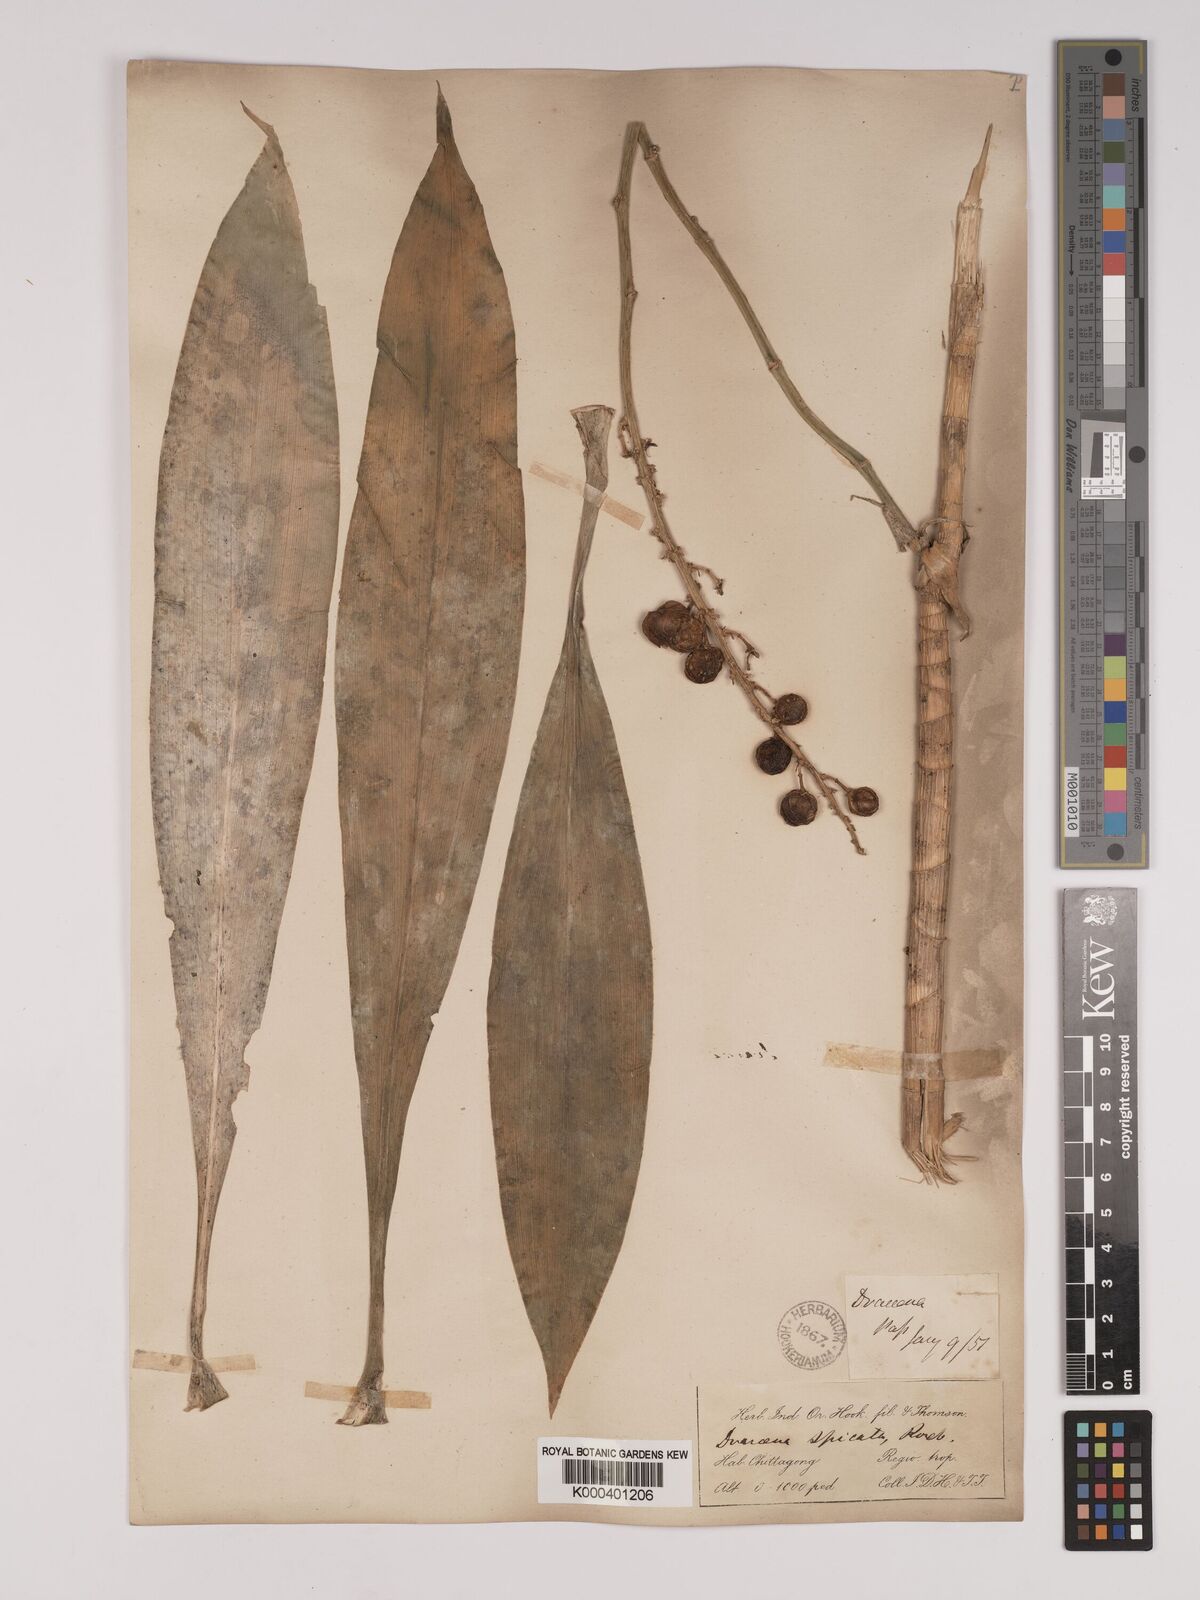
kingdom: Plantae
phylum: Tracheophyta
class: Liliopsida
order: Asparagales
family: Asparagaceae
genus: Dracaena
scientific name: Dracaena terniflora
